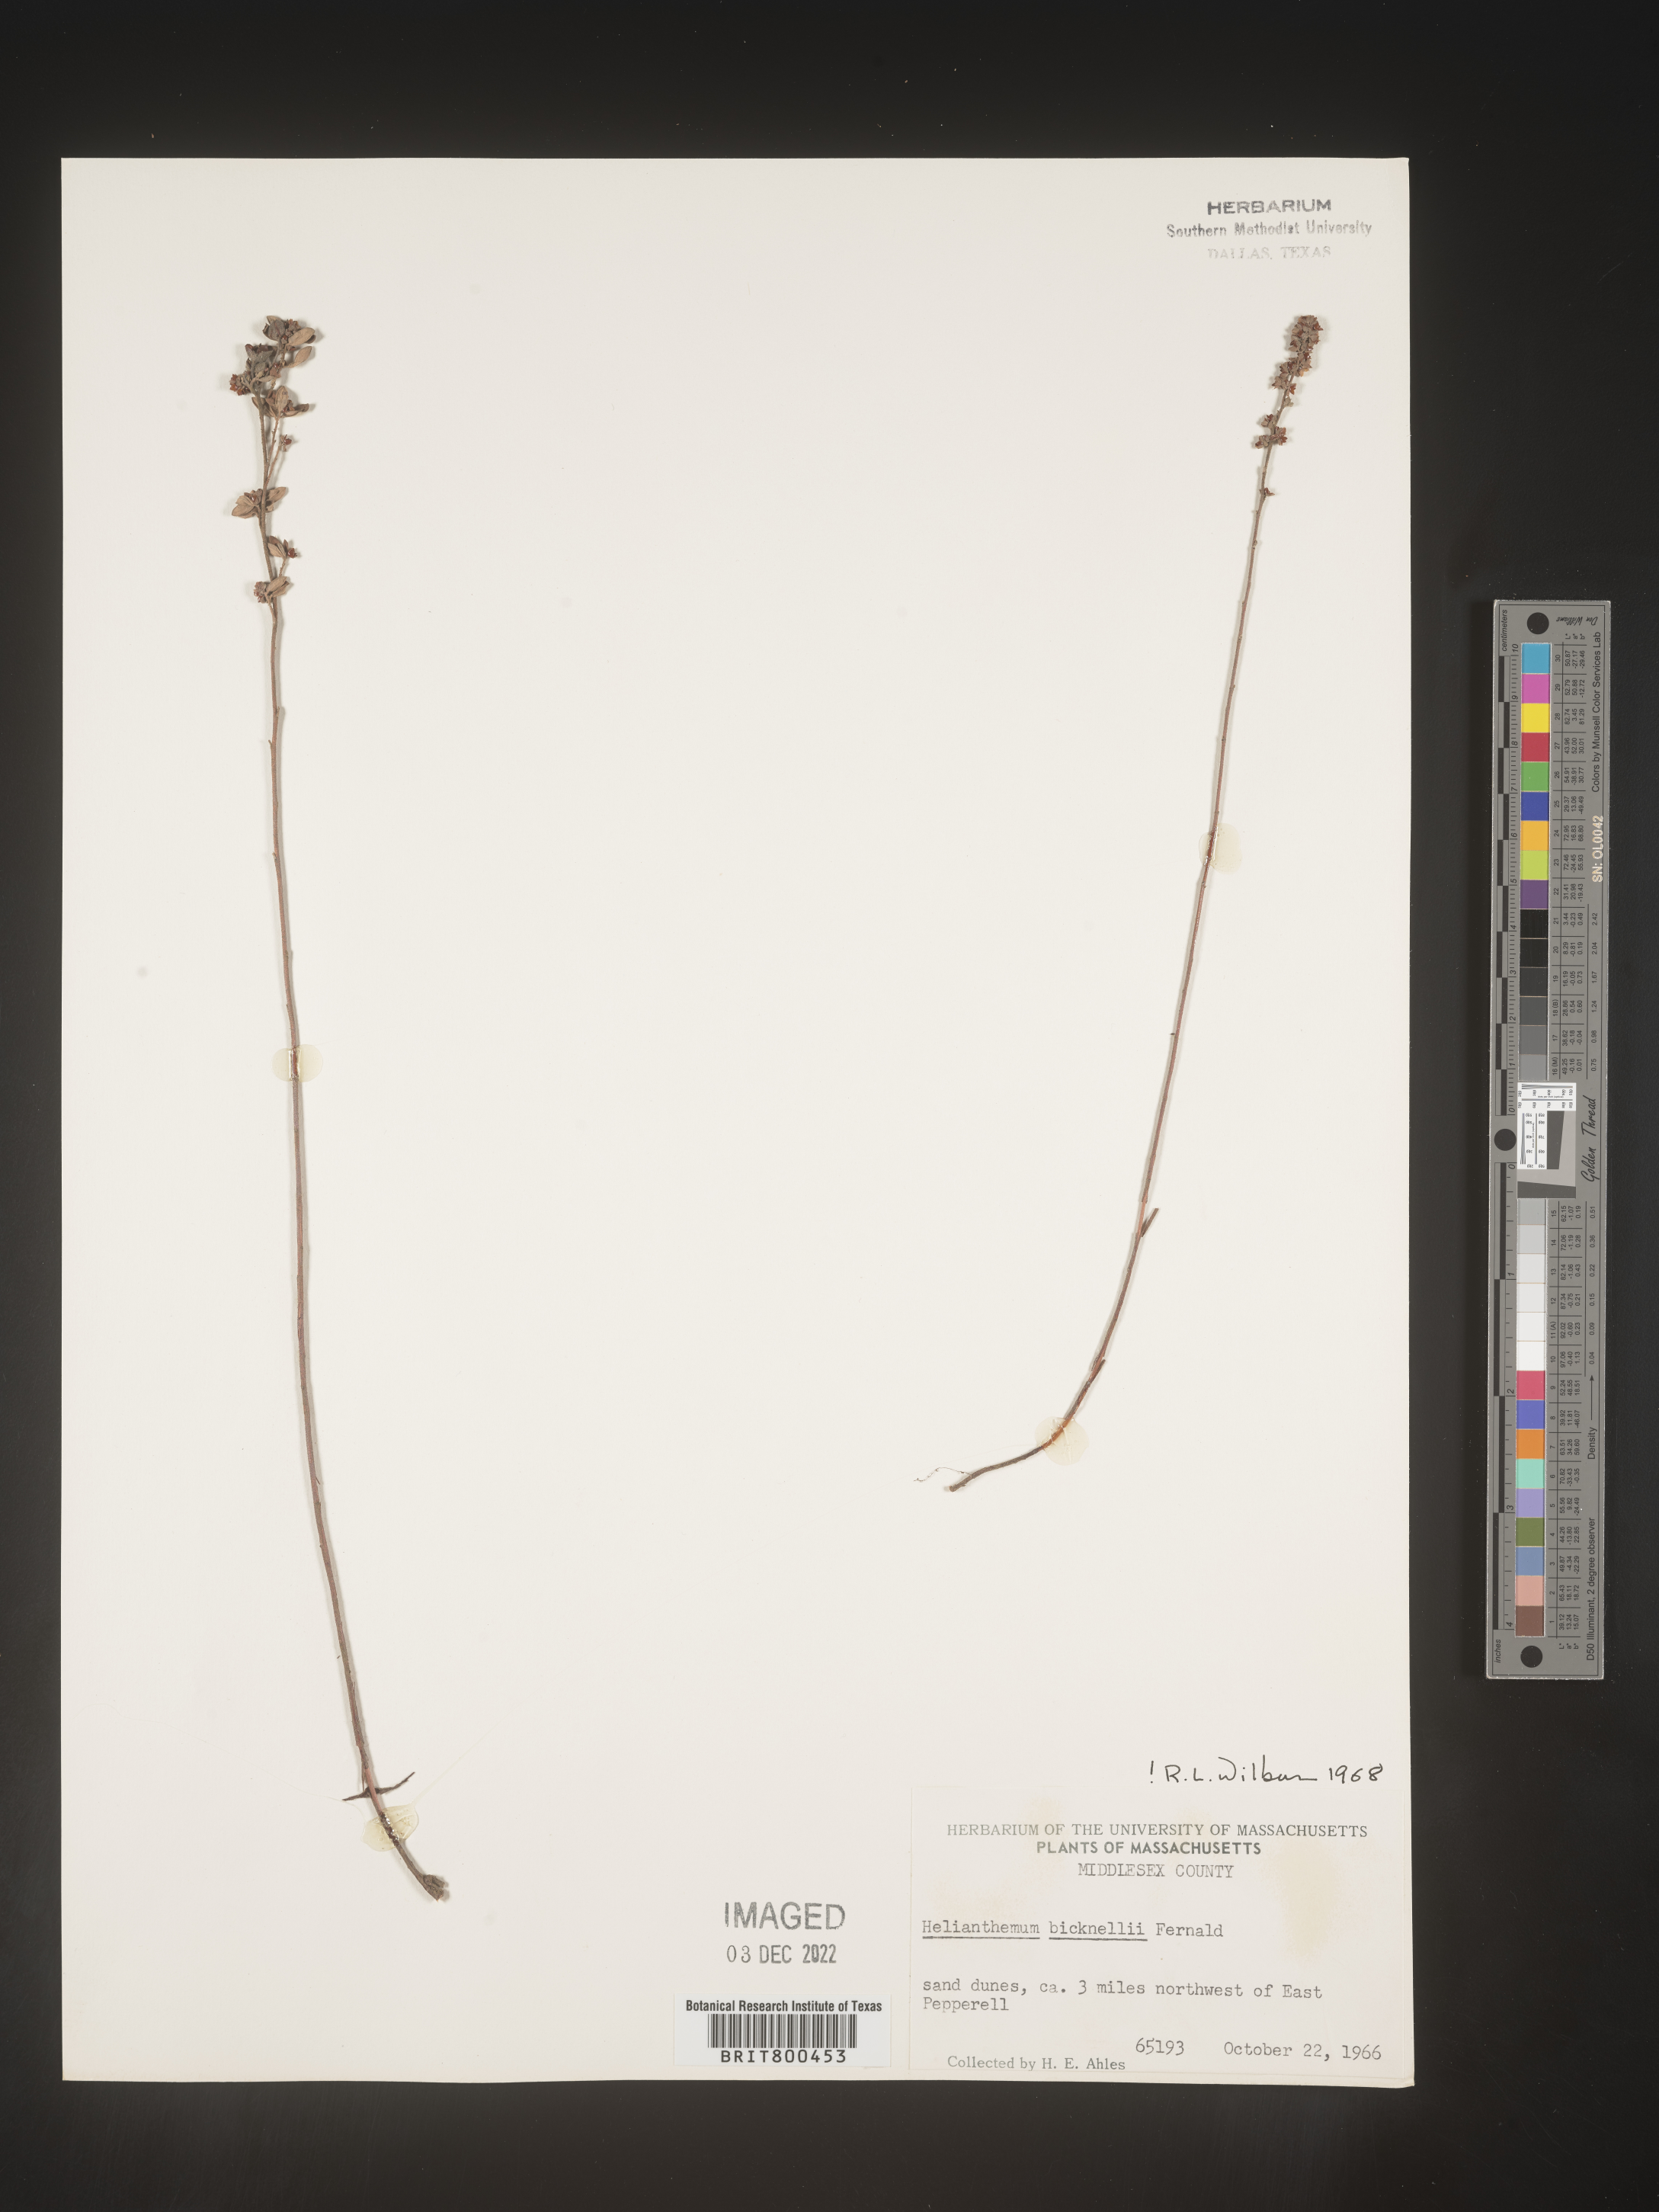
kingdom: Plantae
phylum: Tracheophyta
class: Magnoliopsida
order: Malvales
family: Cistaceae
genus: Helianthemum
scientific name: Helianthemum
